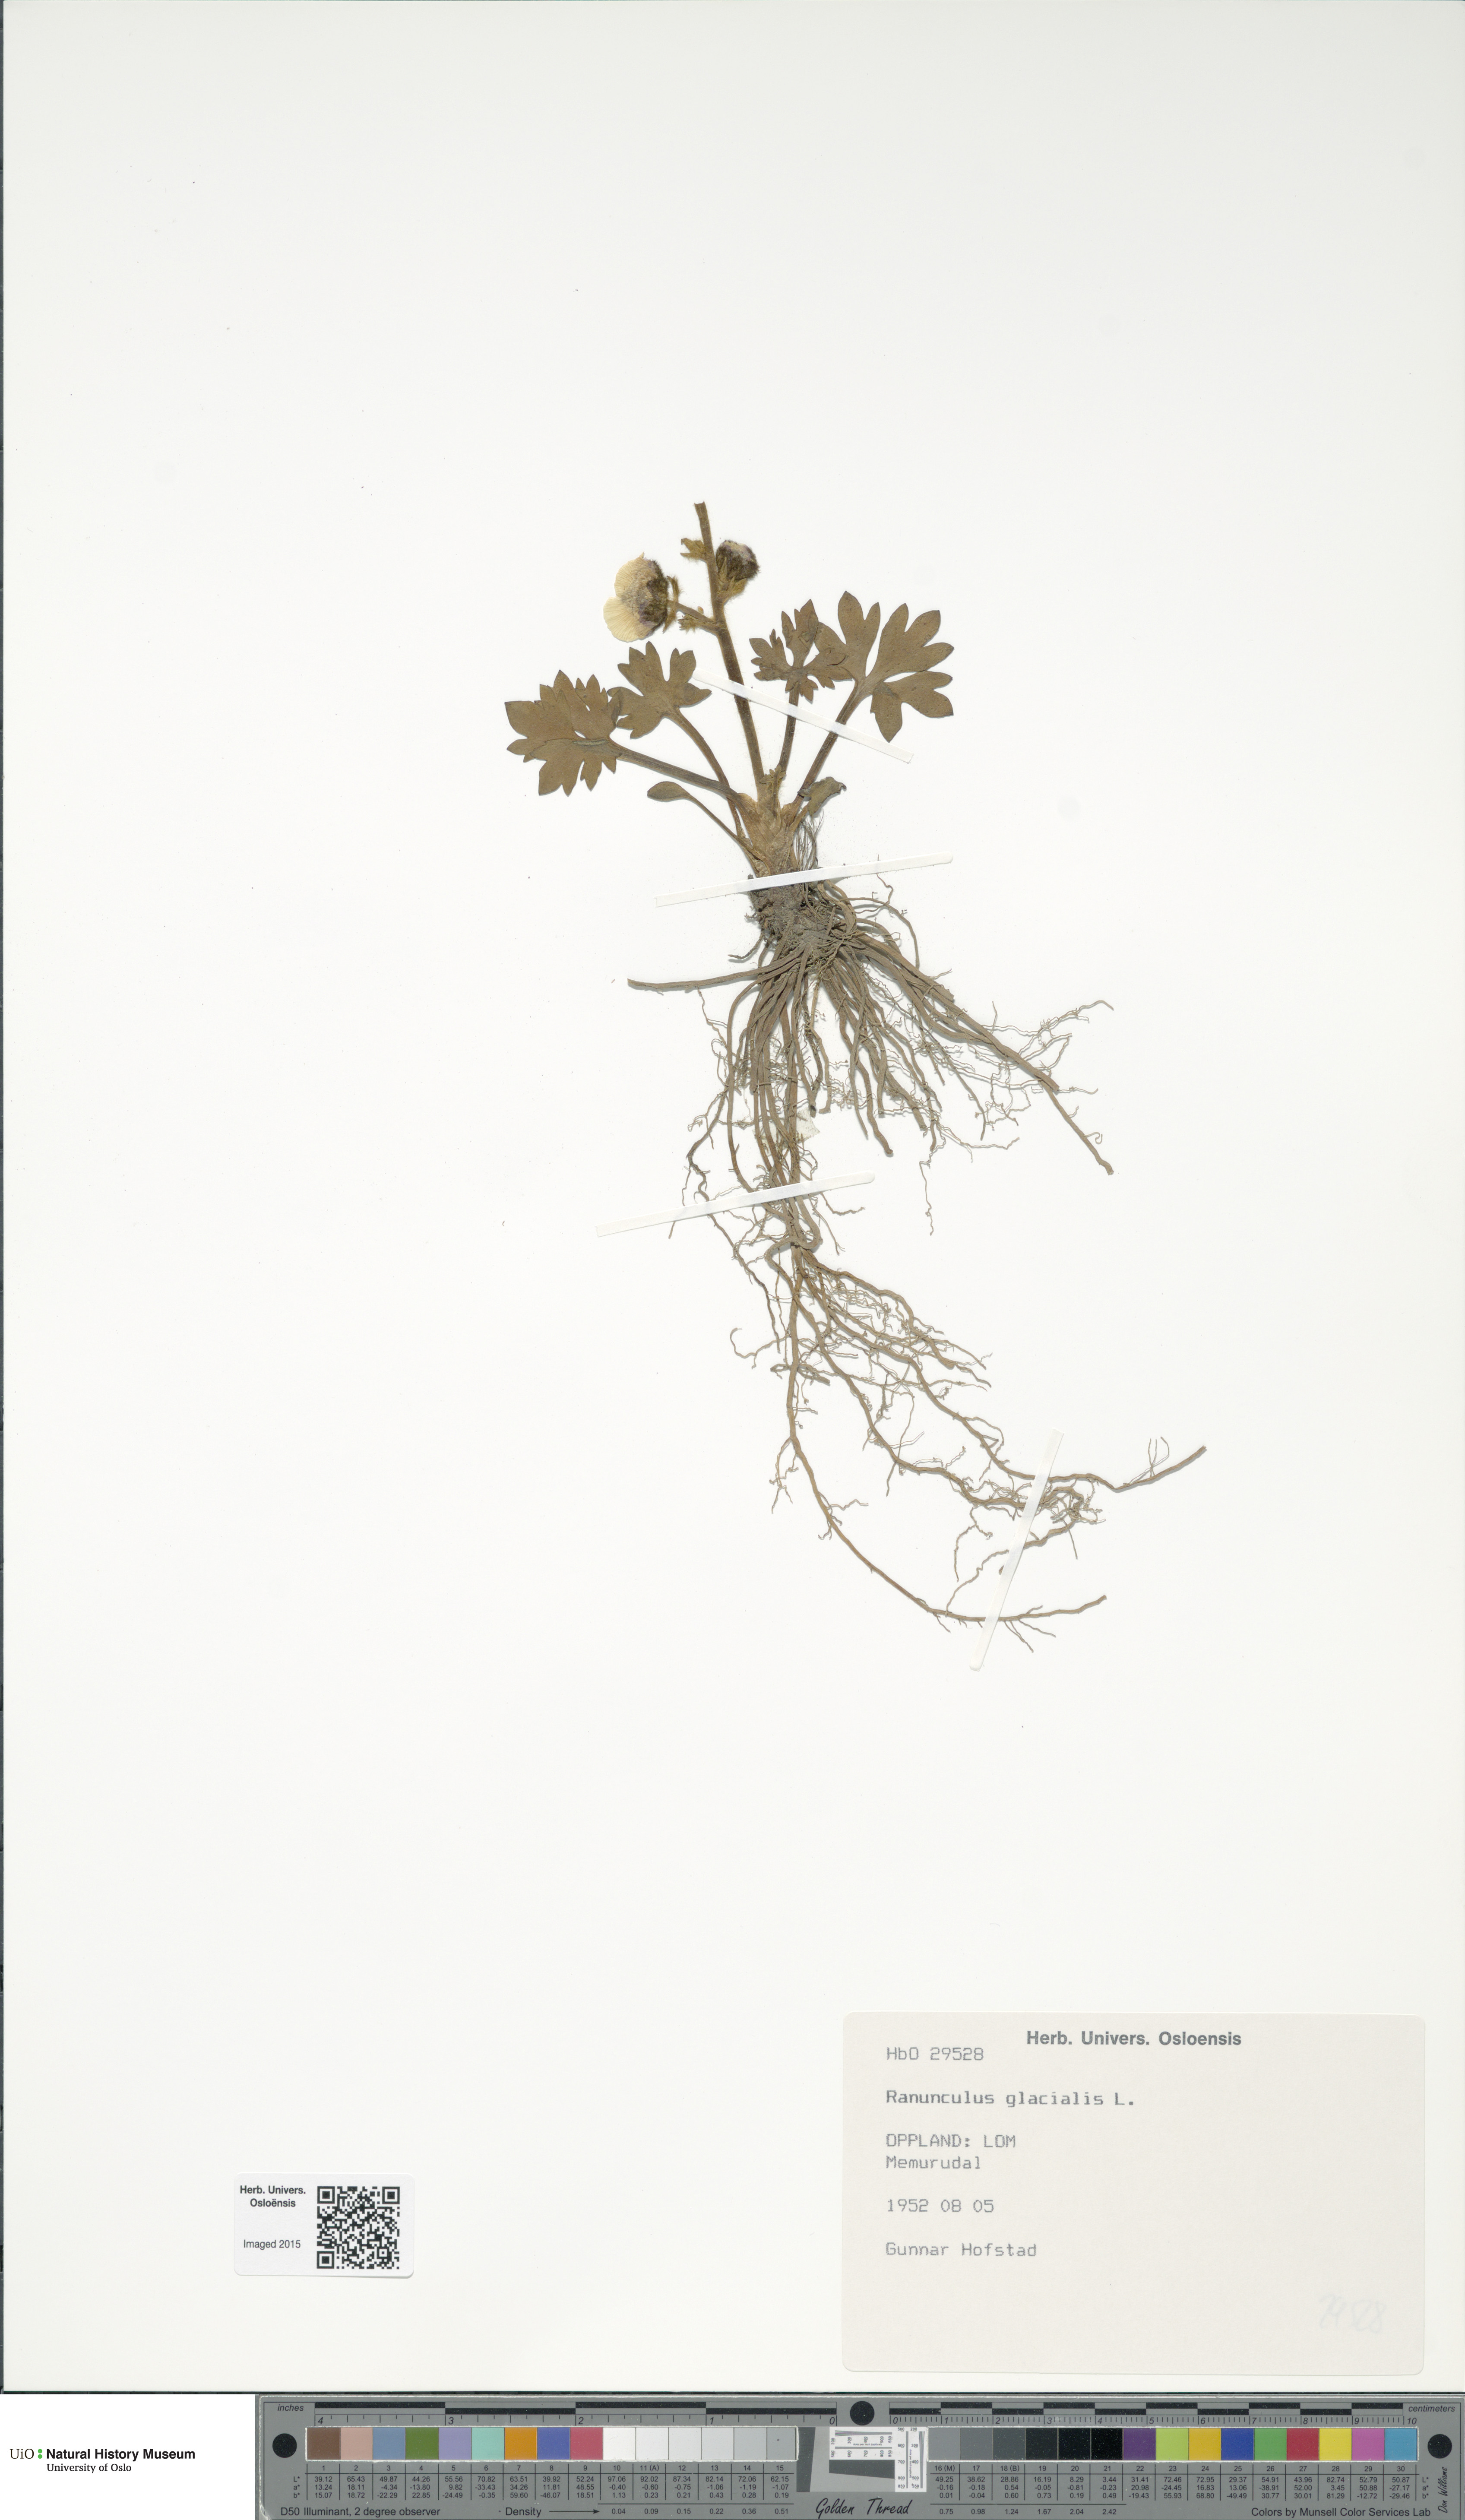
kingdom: Plantae
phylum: Tracheophyta
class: Magnoliopsida
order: Ranunculales
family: Ranunculaceae
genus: Ranunculus
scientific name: Ranunculus glacialis
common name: Glacier buttercup
